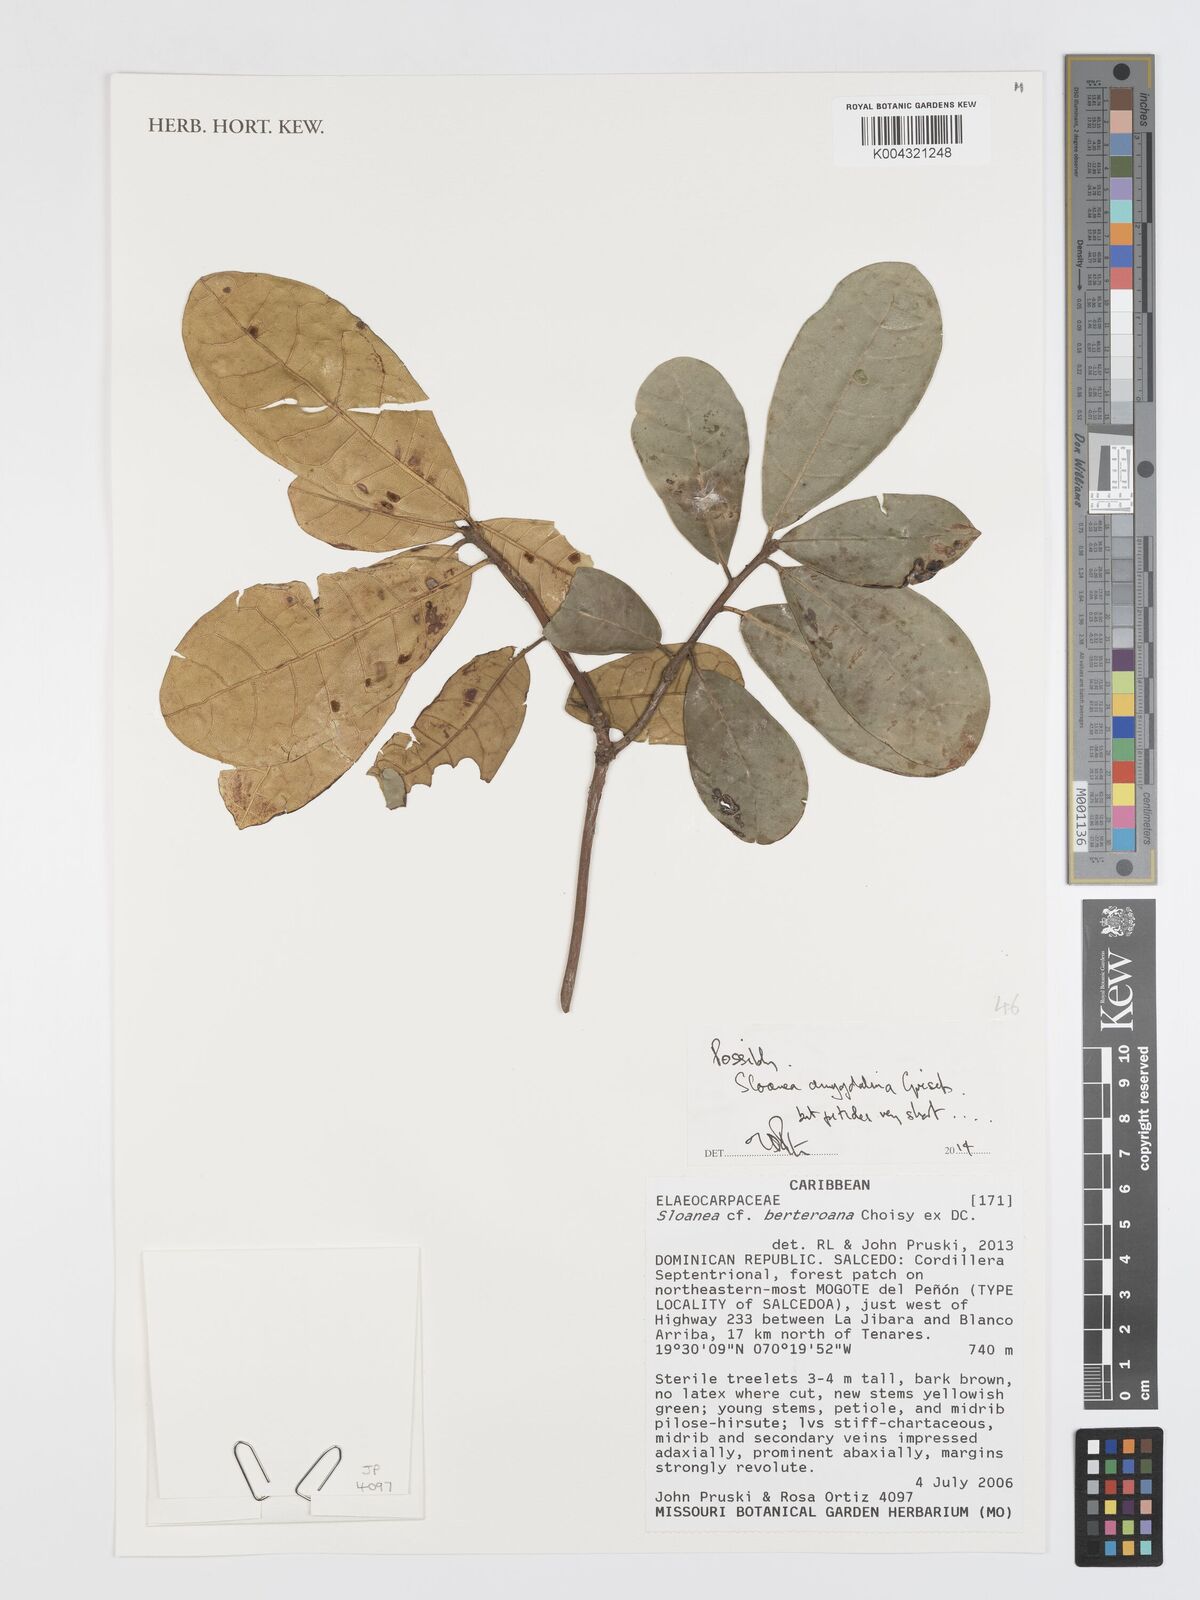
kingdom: Plantae
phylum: Tracheophyta
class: Magnoliopsida
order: Oxalidales
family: Elaeocarpaceae
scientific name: Elaeocarpaceae
